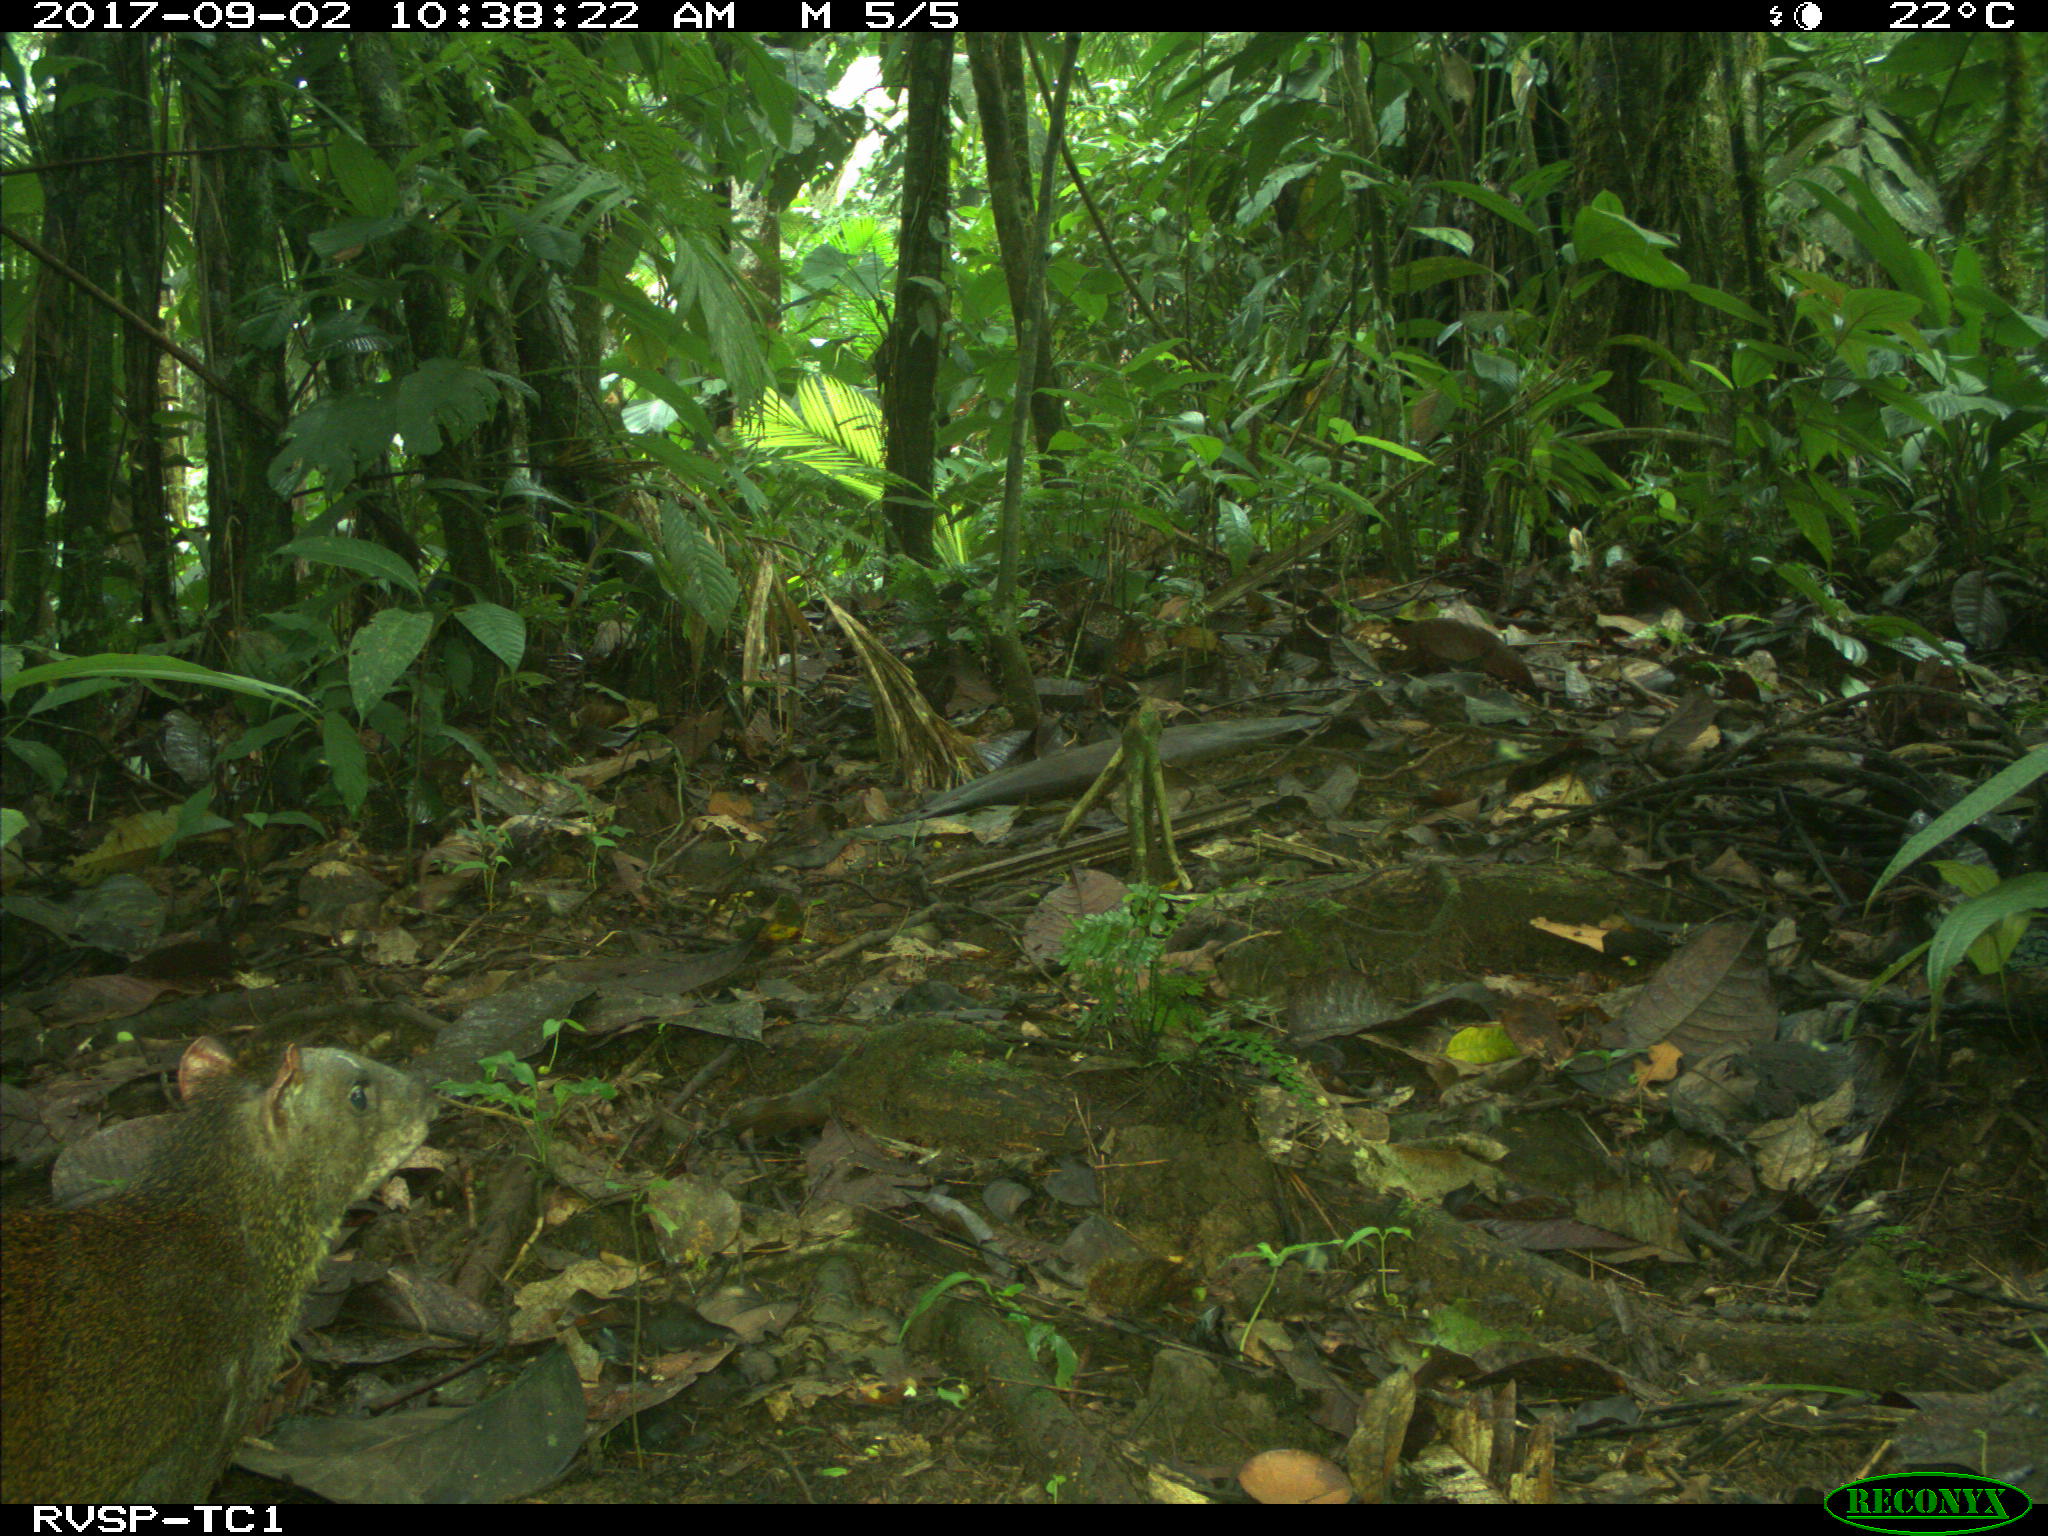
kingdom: Animalia
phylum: Chordata
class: Mammalia
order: Rodentia
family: Dasyproctidae
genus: Dasyprocta
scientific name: Dasyprocta punctata
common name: Central american agouti
